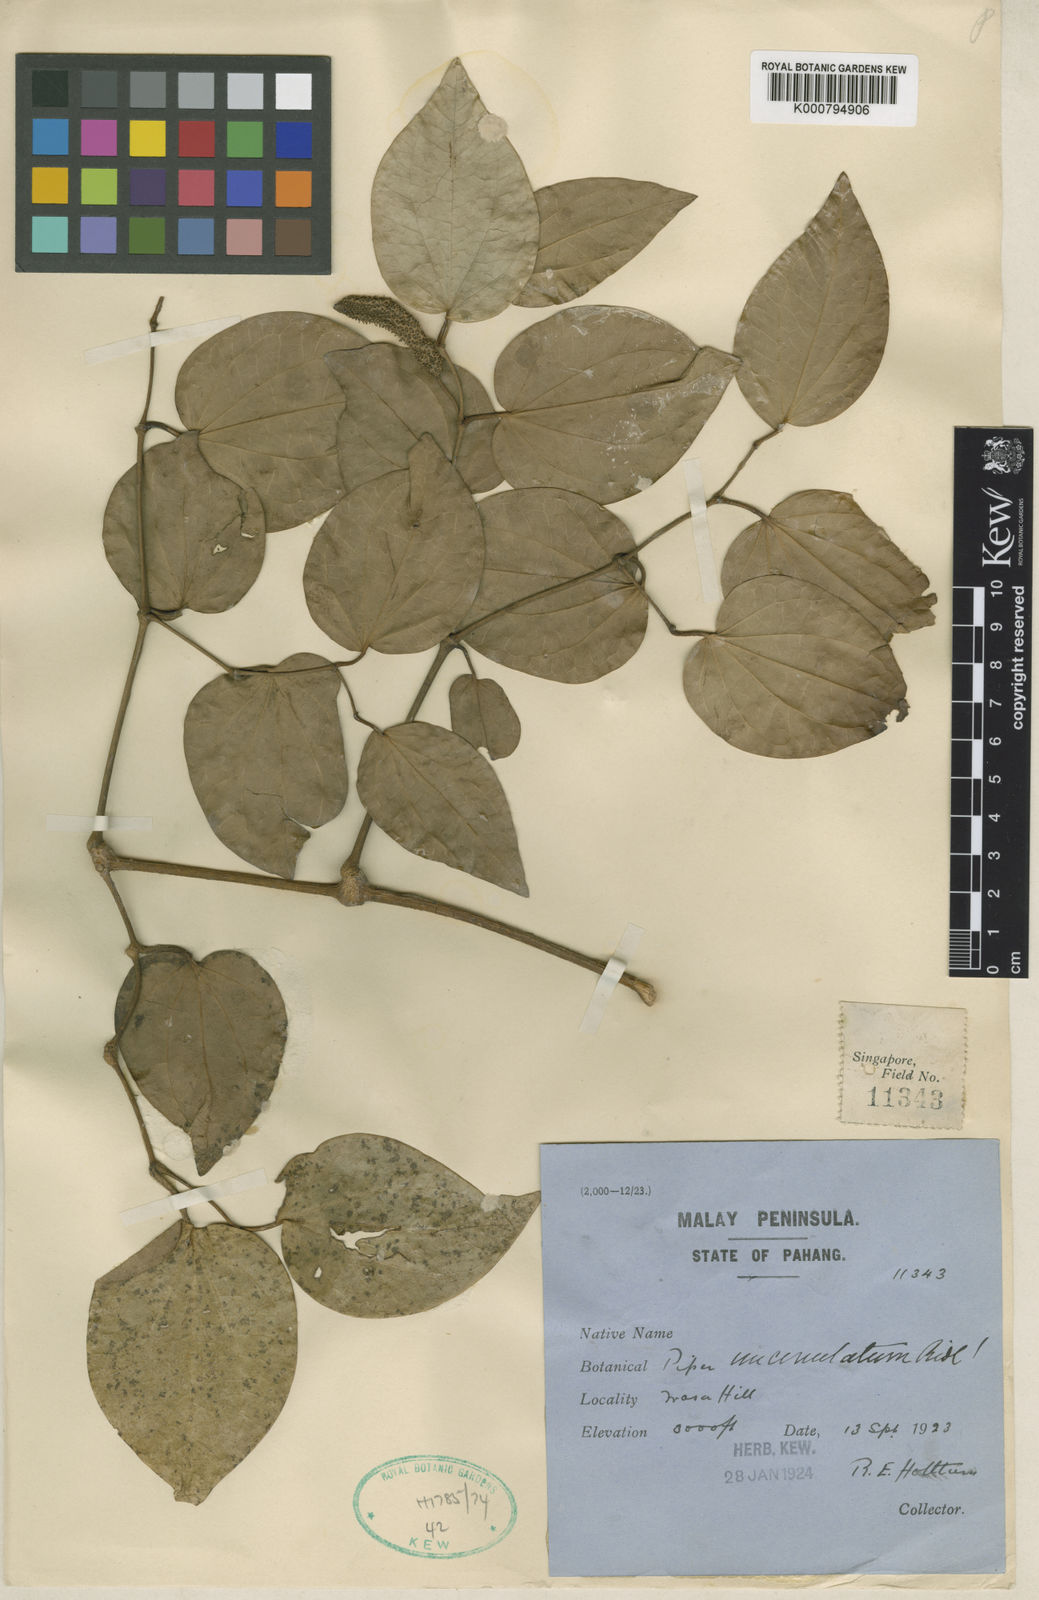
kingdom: Plantae
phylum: Tracheophyta
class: Magnoliopsida
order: Piperales
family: Piperaceae
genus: Piper
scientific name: Piper uncinulatum
